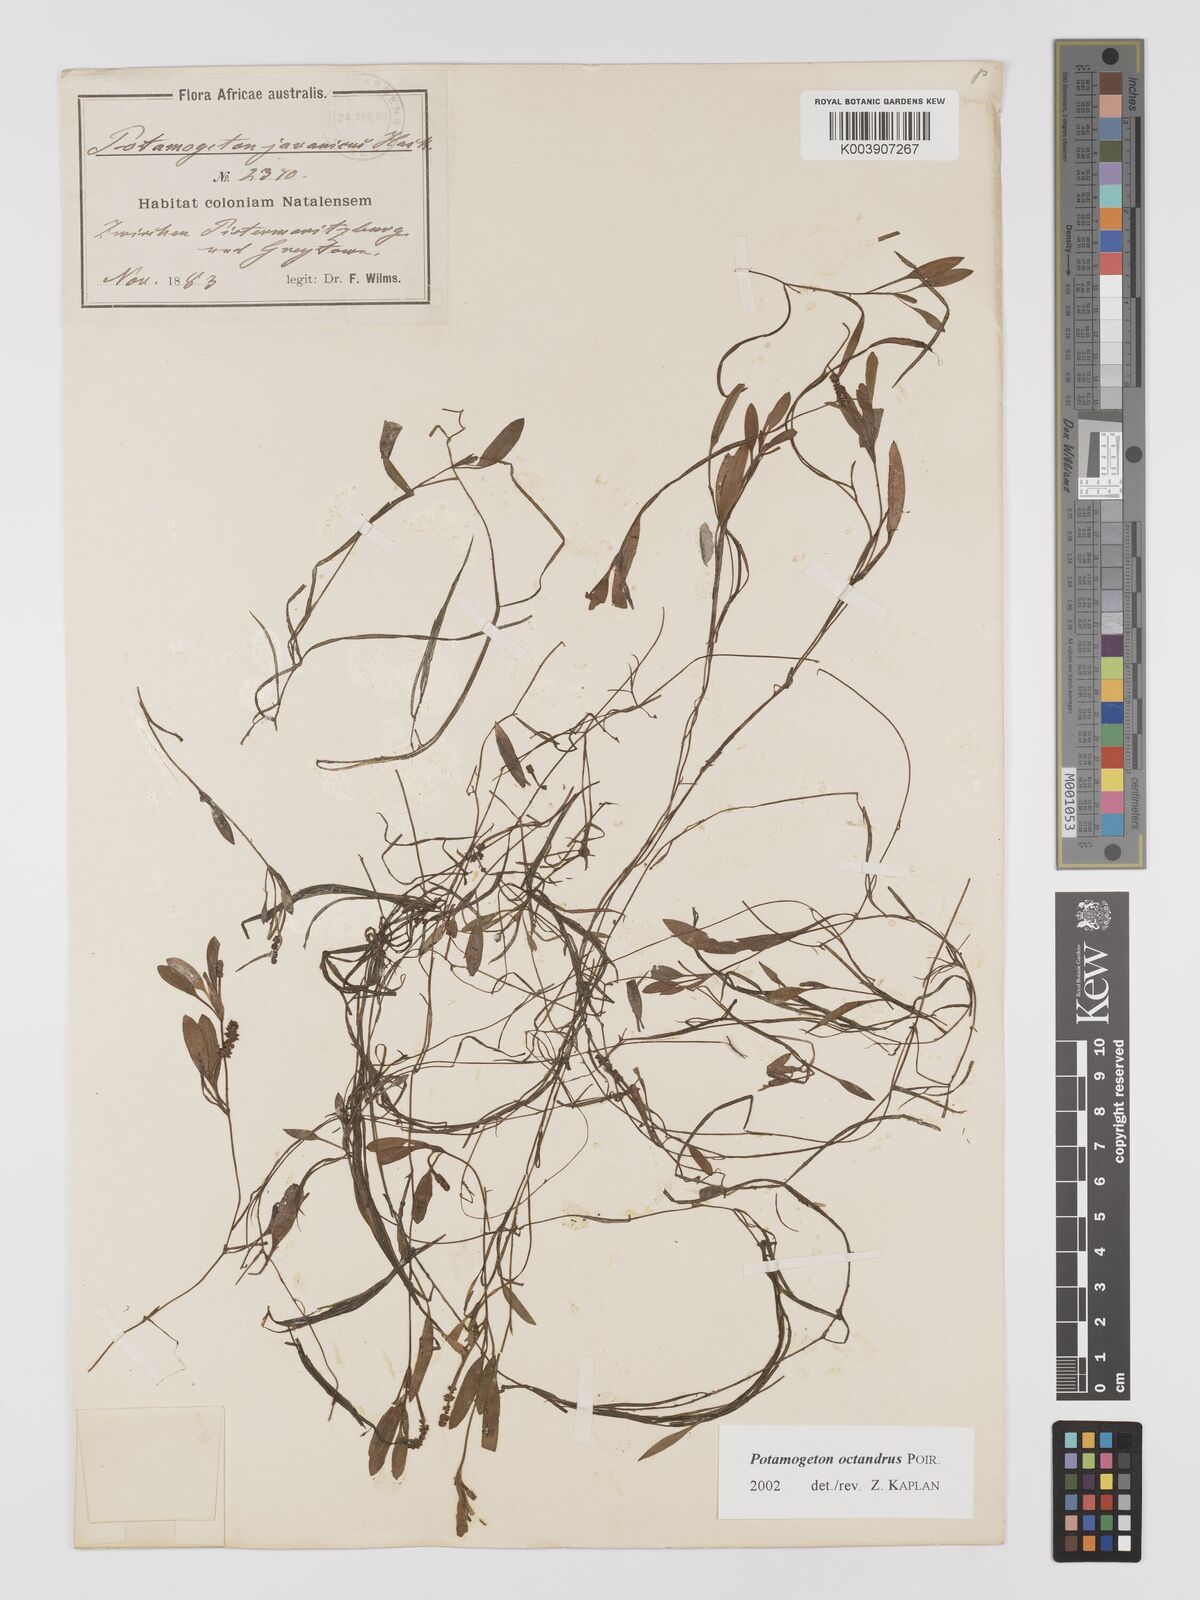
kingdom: Plantae
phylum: Tracheophyta
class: Liliopsida
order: Alismatales
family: Potamogetonaceae
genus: Potamogeton
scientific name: Potamogeton tenuicaulis
